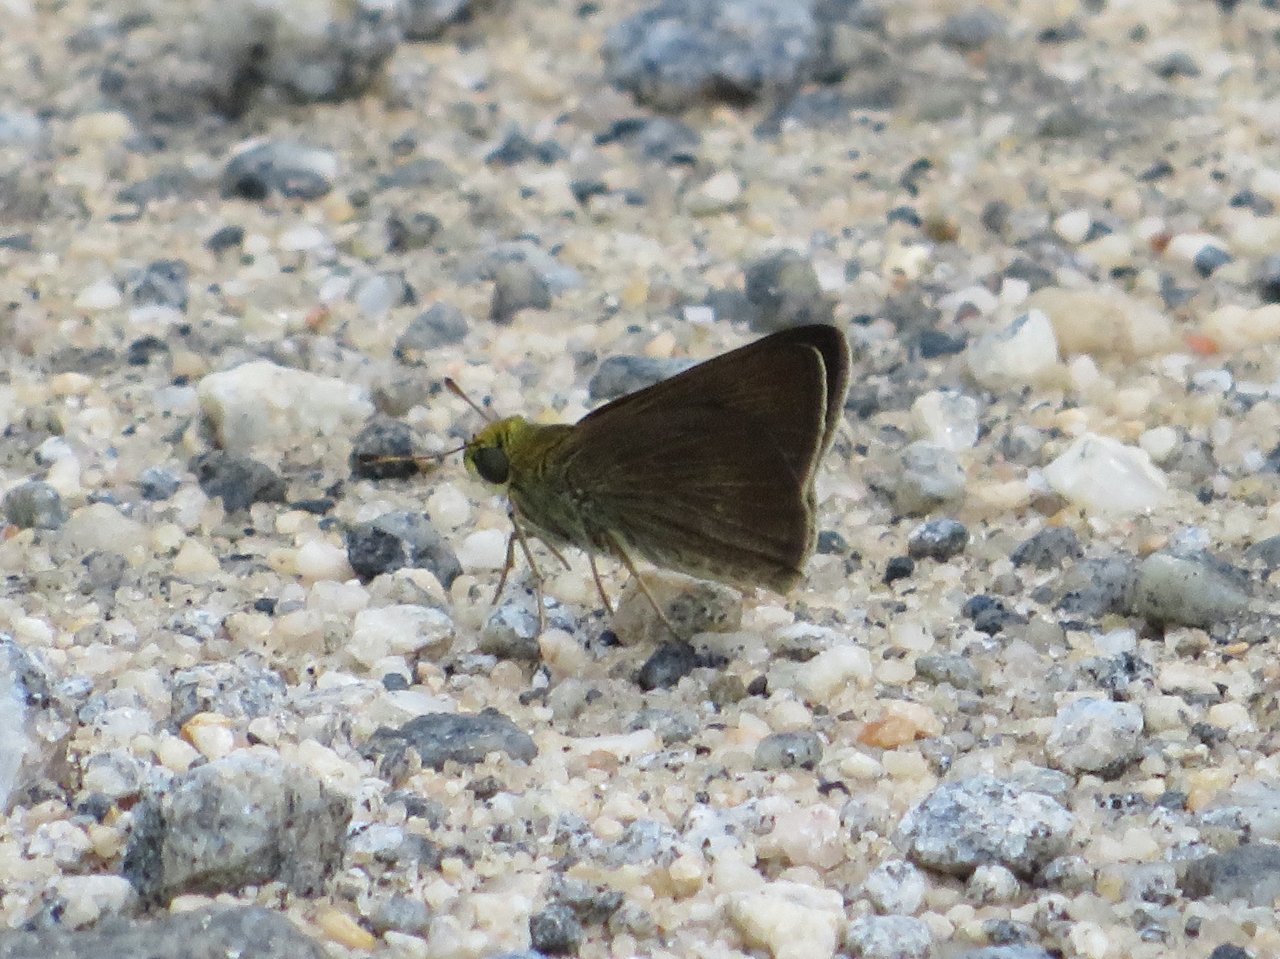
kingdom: Animalia
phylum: Arthropoda
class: Insecta
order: Lepidoptera
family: Hesperiidae
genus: Euphyes
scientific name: Euphyes vestris
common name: Dun Skipper
